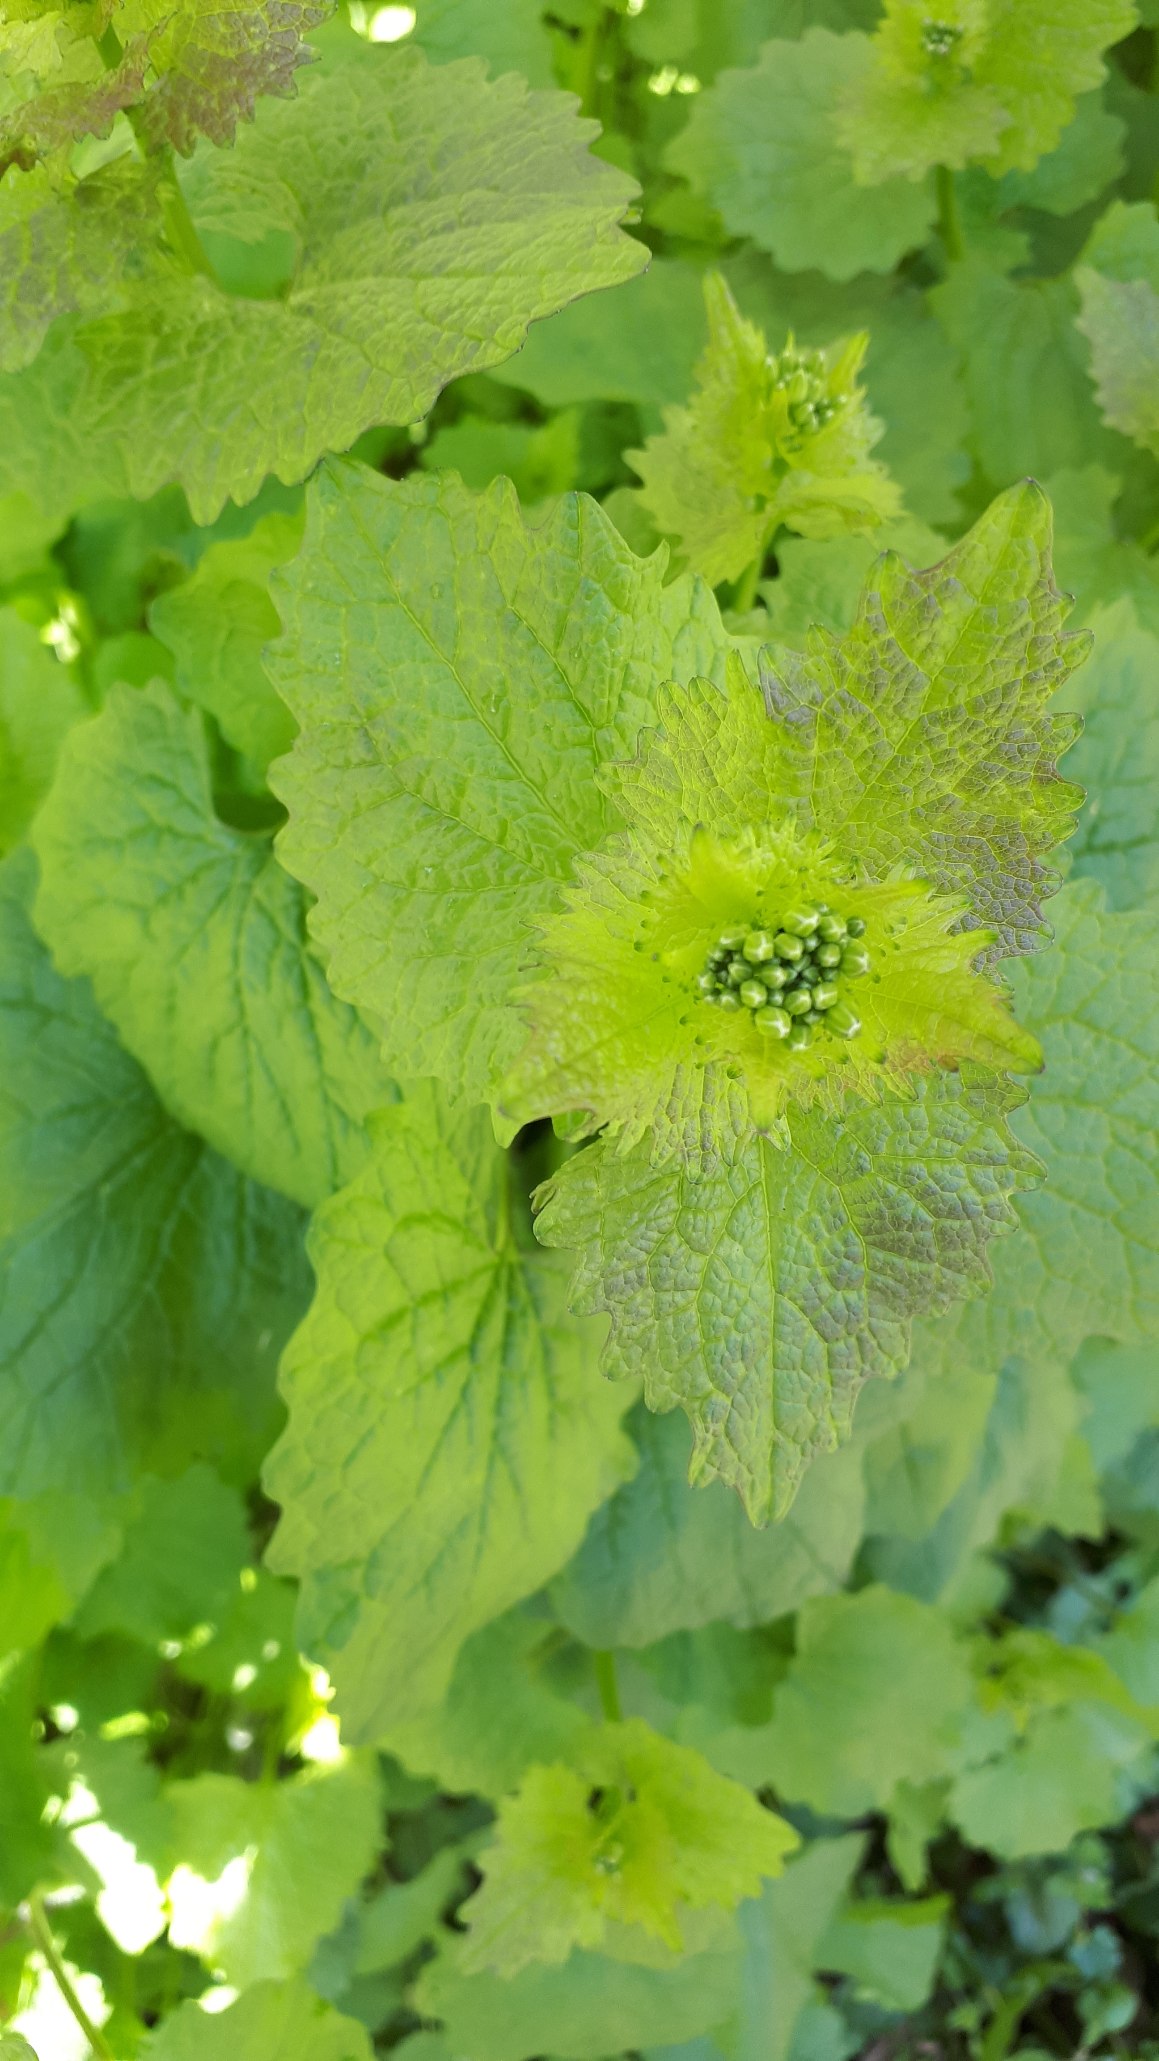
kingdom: Plantae
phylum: Tracheophyta
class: Magnoliopsida
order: Brassicales
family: Brassicaceae
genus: Alliaria
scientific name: Alliaria petiolata
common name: Løgkarse
